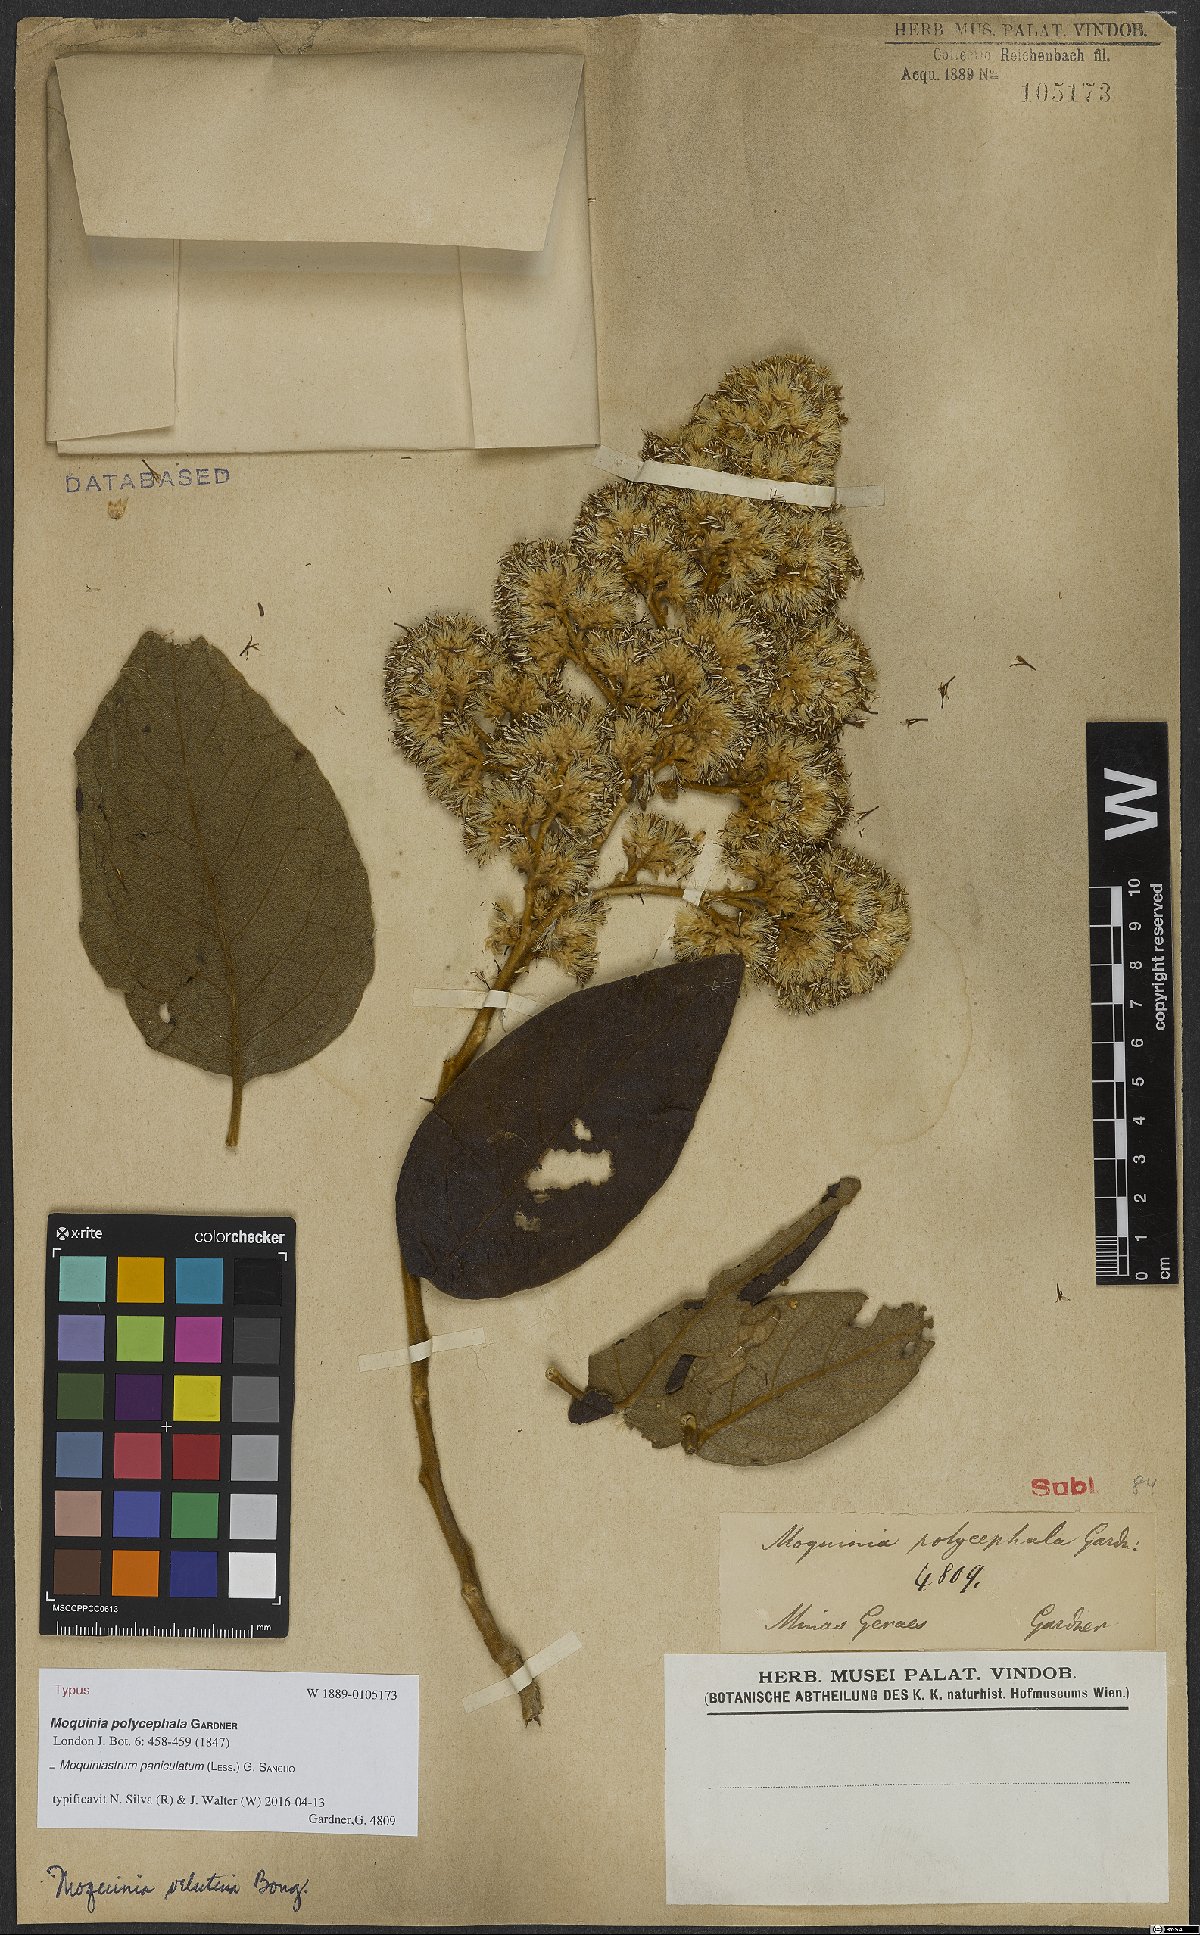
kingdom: Plantae
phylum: Tracheophyta
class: Magnoliopsida
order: Asterales
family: Asteraceae
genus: Moquiniastrum
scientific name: Moquiniastrum paniculatum
